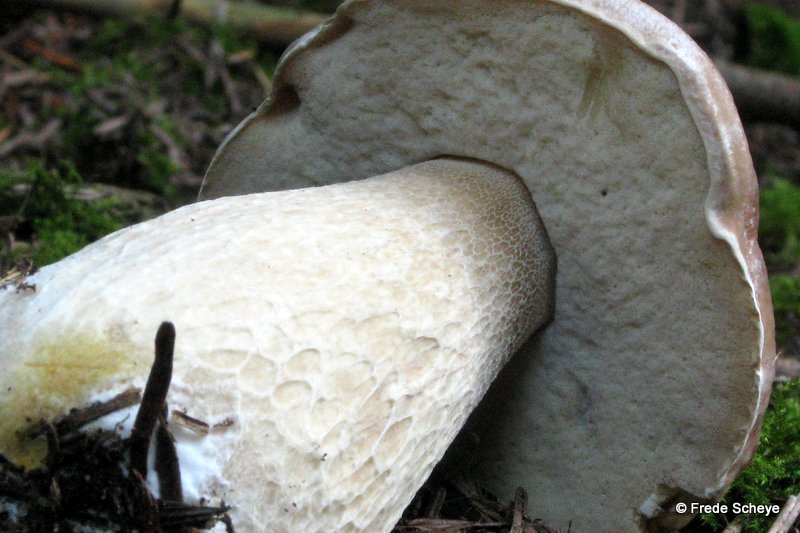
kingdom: Fungi
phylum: Basidiomycota
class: Agaricomycetes
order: Boletales
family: Boletaceae
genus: Boletus
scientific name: Boletus edulis
